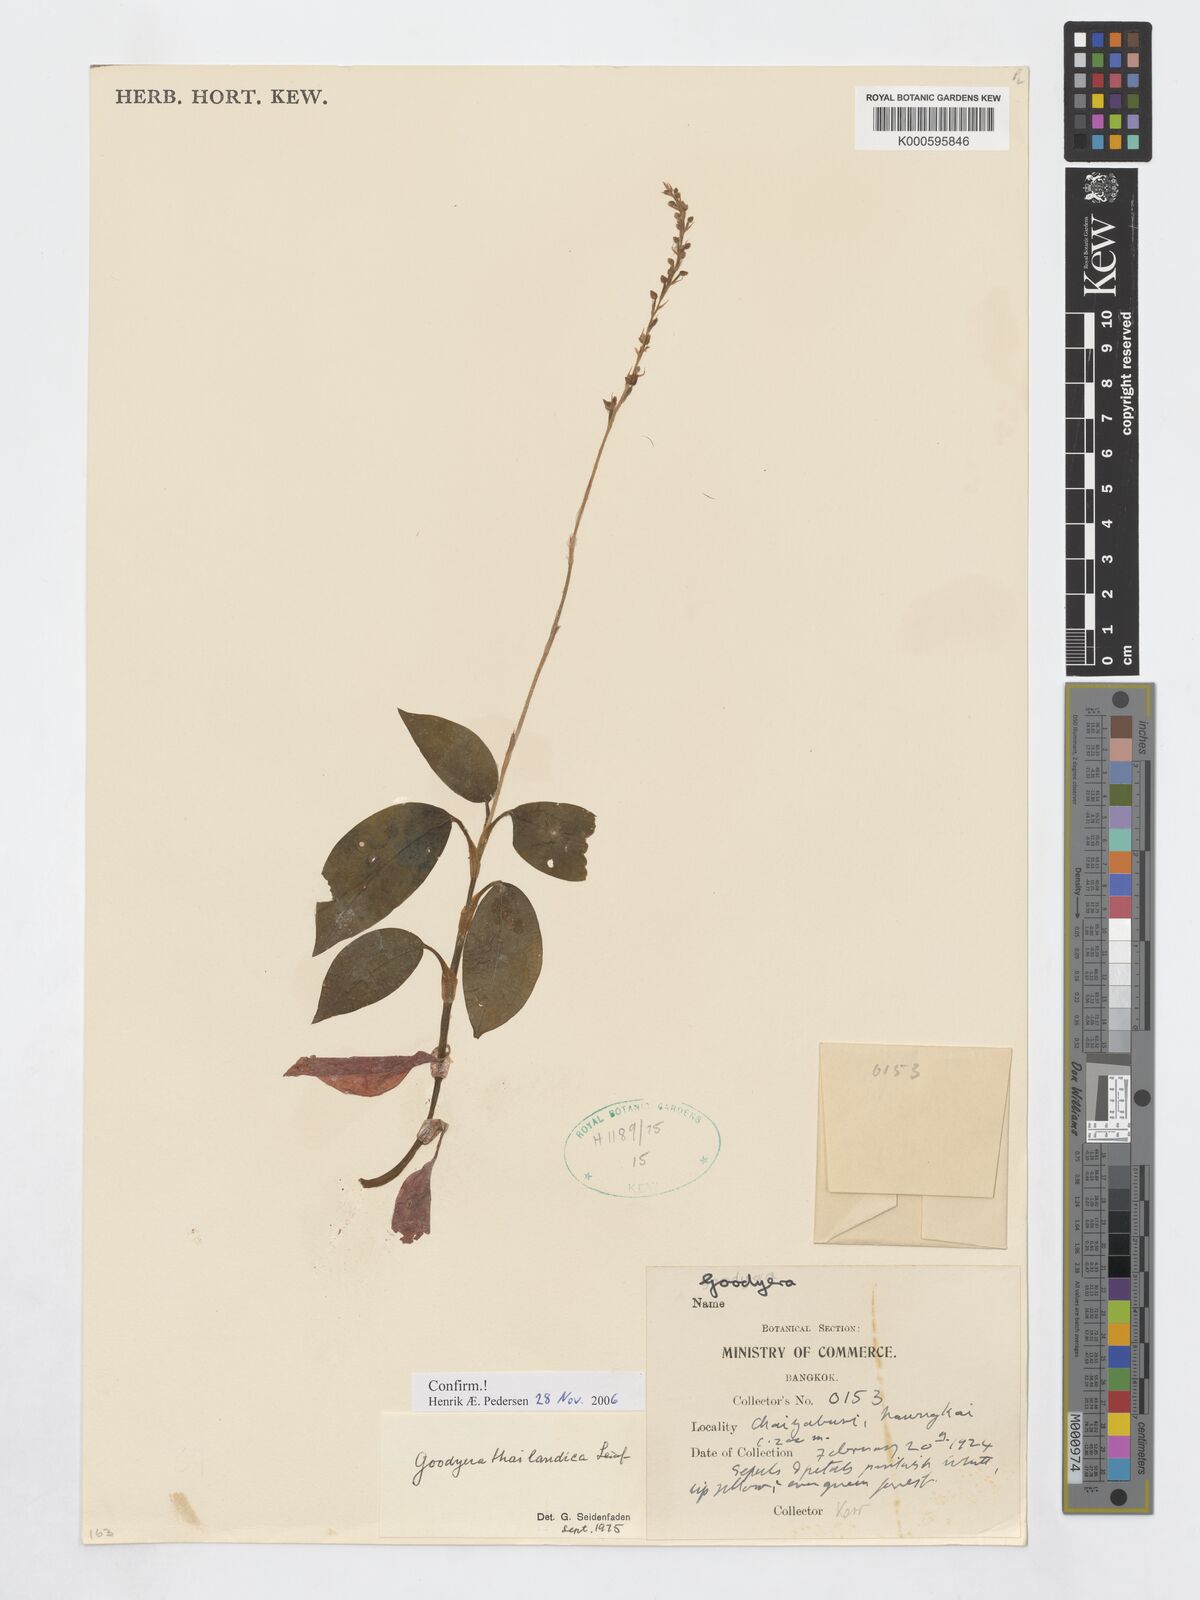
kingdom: Plantae
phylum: Tracheophyta
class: Liliopsida
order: Asparagales
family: Orchidaceae
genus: Goodyera
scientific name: Goodyera thailandica
